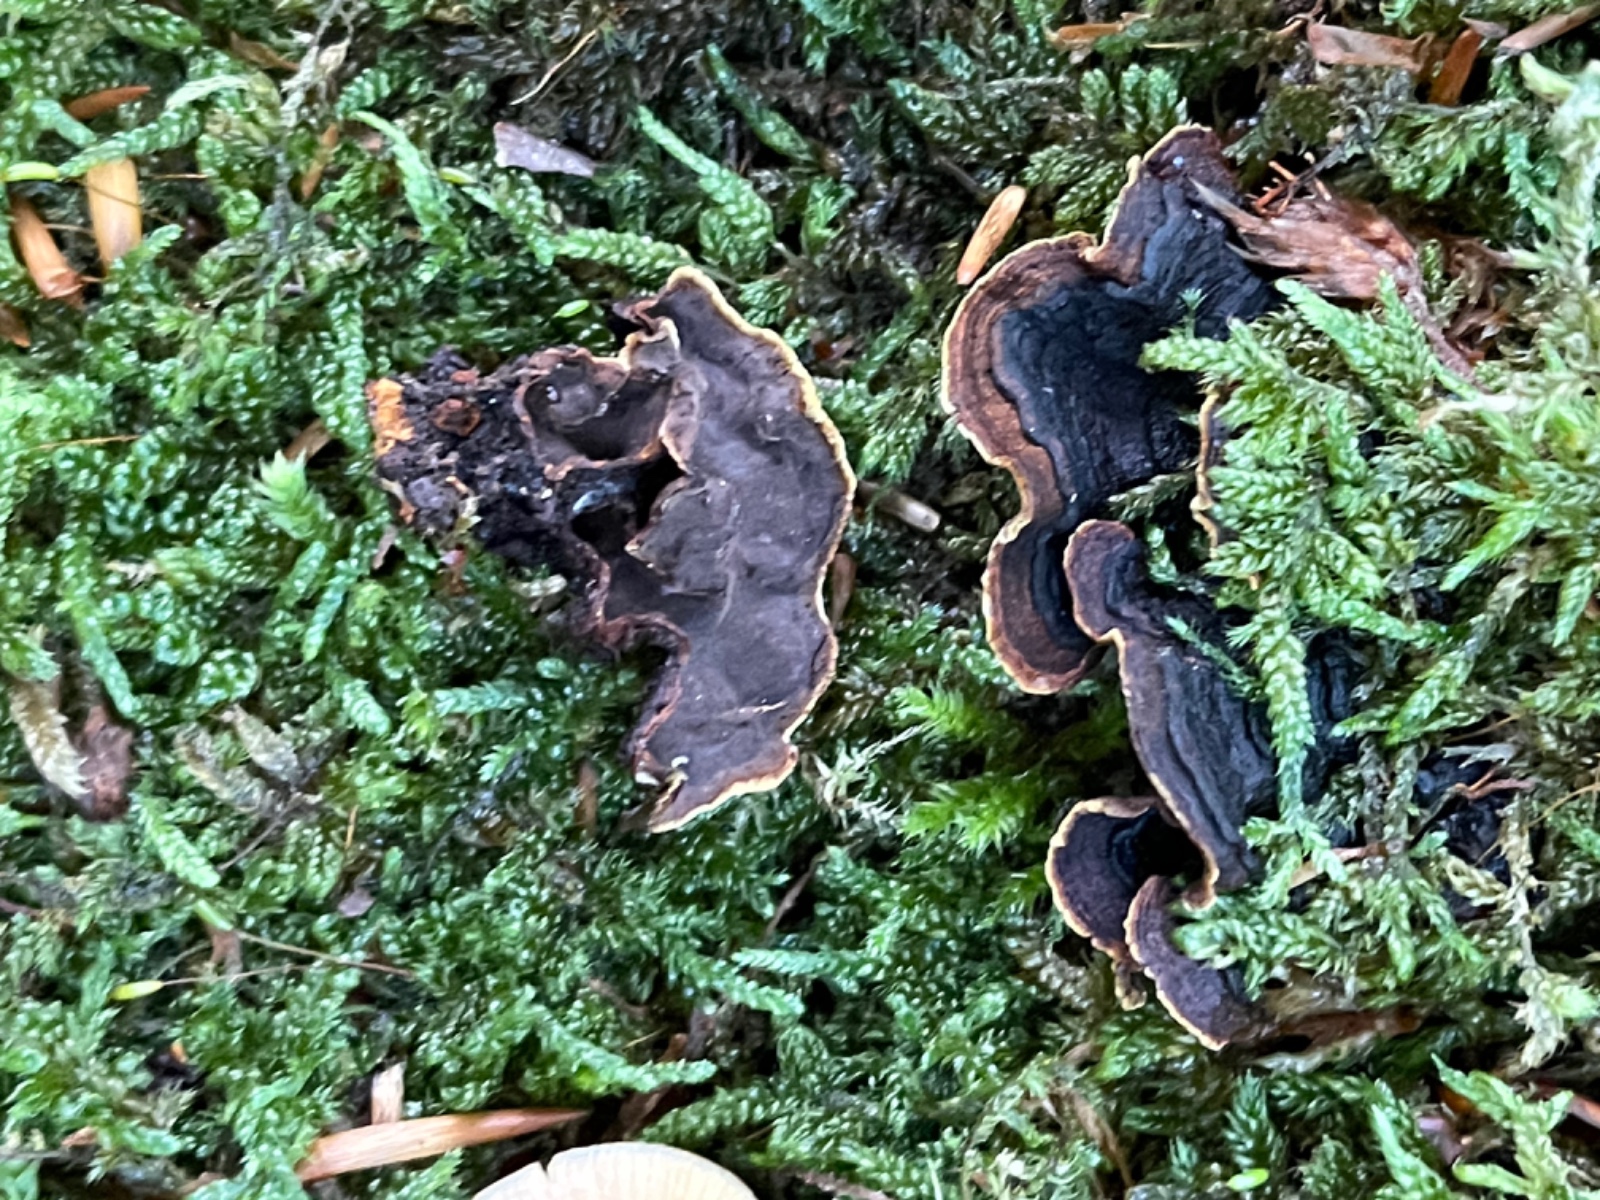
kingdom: Fungi
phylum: Basidiomycota
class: Agaricomycetes
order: Hymenochaetales
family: Hymenochaetaceae
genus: Hymenochaete
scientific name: Hymenochaete rubiginosa
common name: stiv ruslædersvamp
